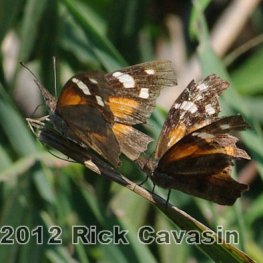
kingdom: Animalia
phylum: Arthropoda
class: Insecta
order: Lepidoptera
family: Nymphalidae
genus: Libytheana
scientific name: Libytheana carinenta
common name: American Snout
